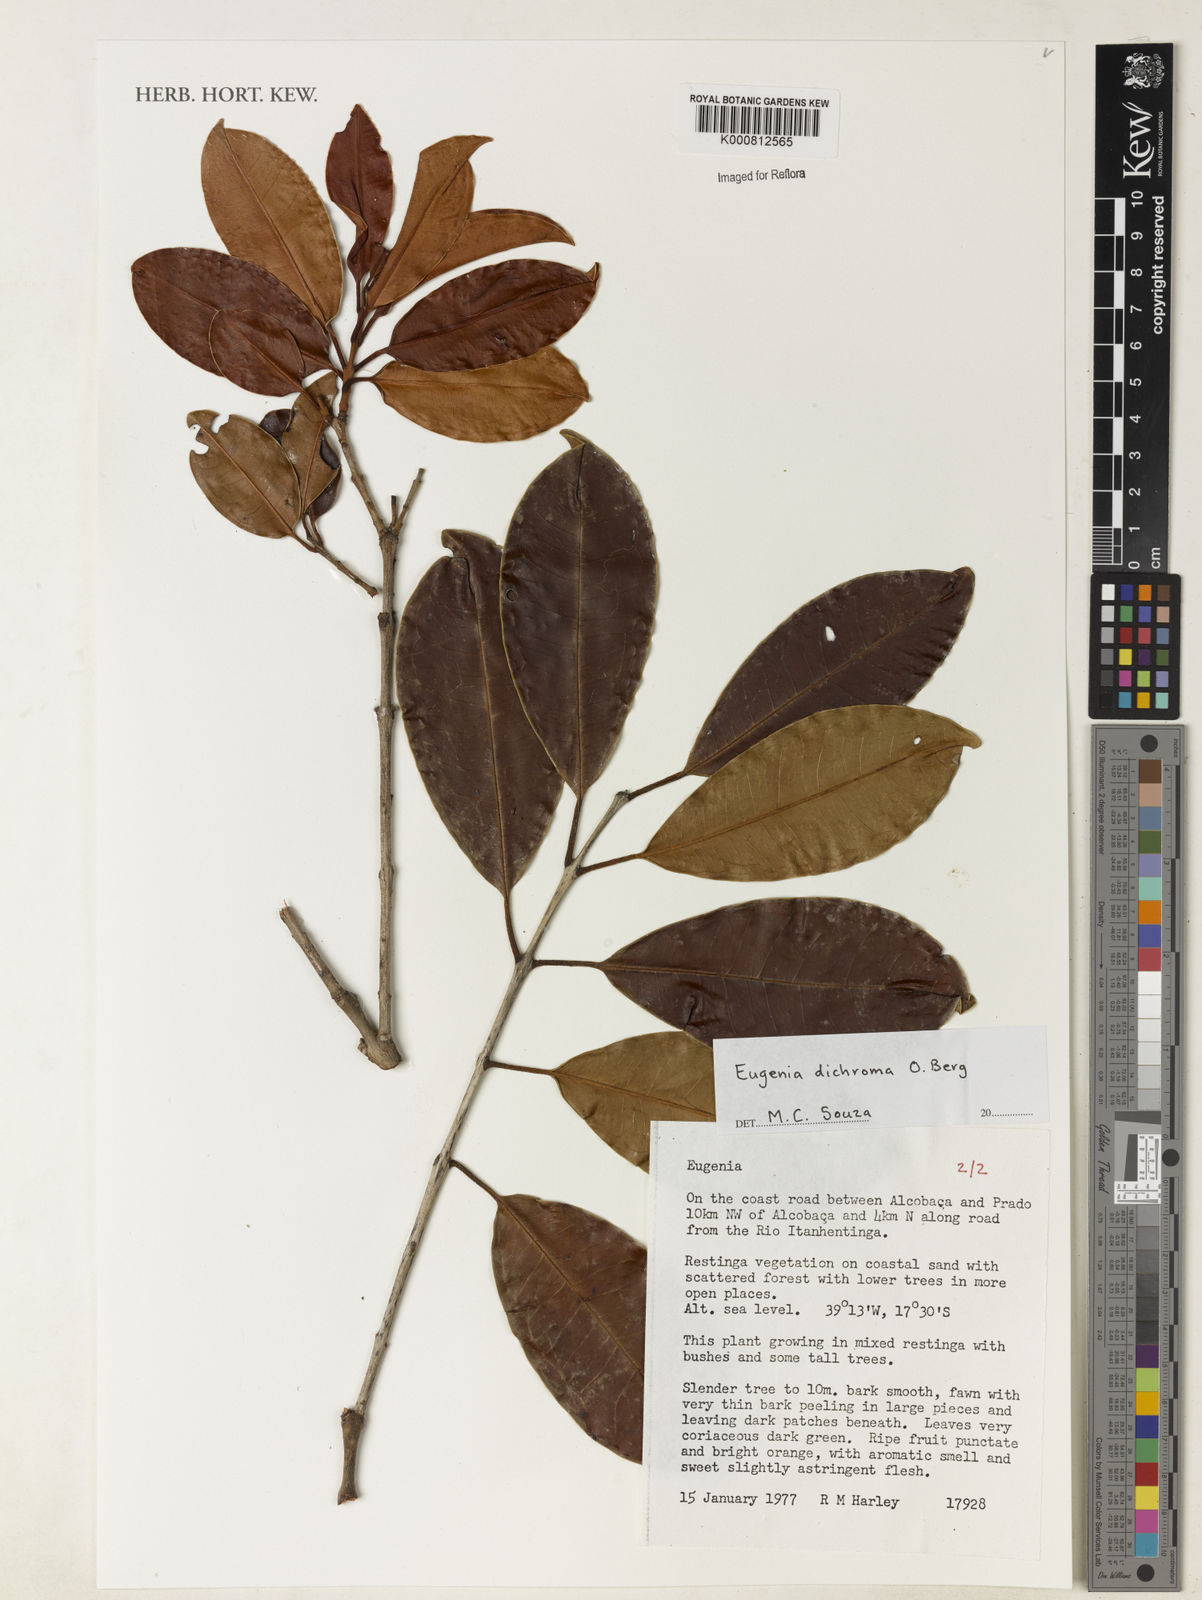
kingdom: Plantae
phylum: Tracheophyta
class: Magnoliopsida
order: Myrtales
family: Myrtaceae
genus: Eugenia
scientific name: Eugenia dichroma
